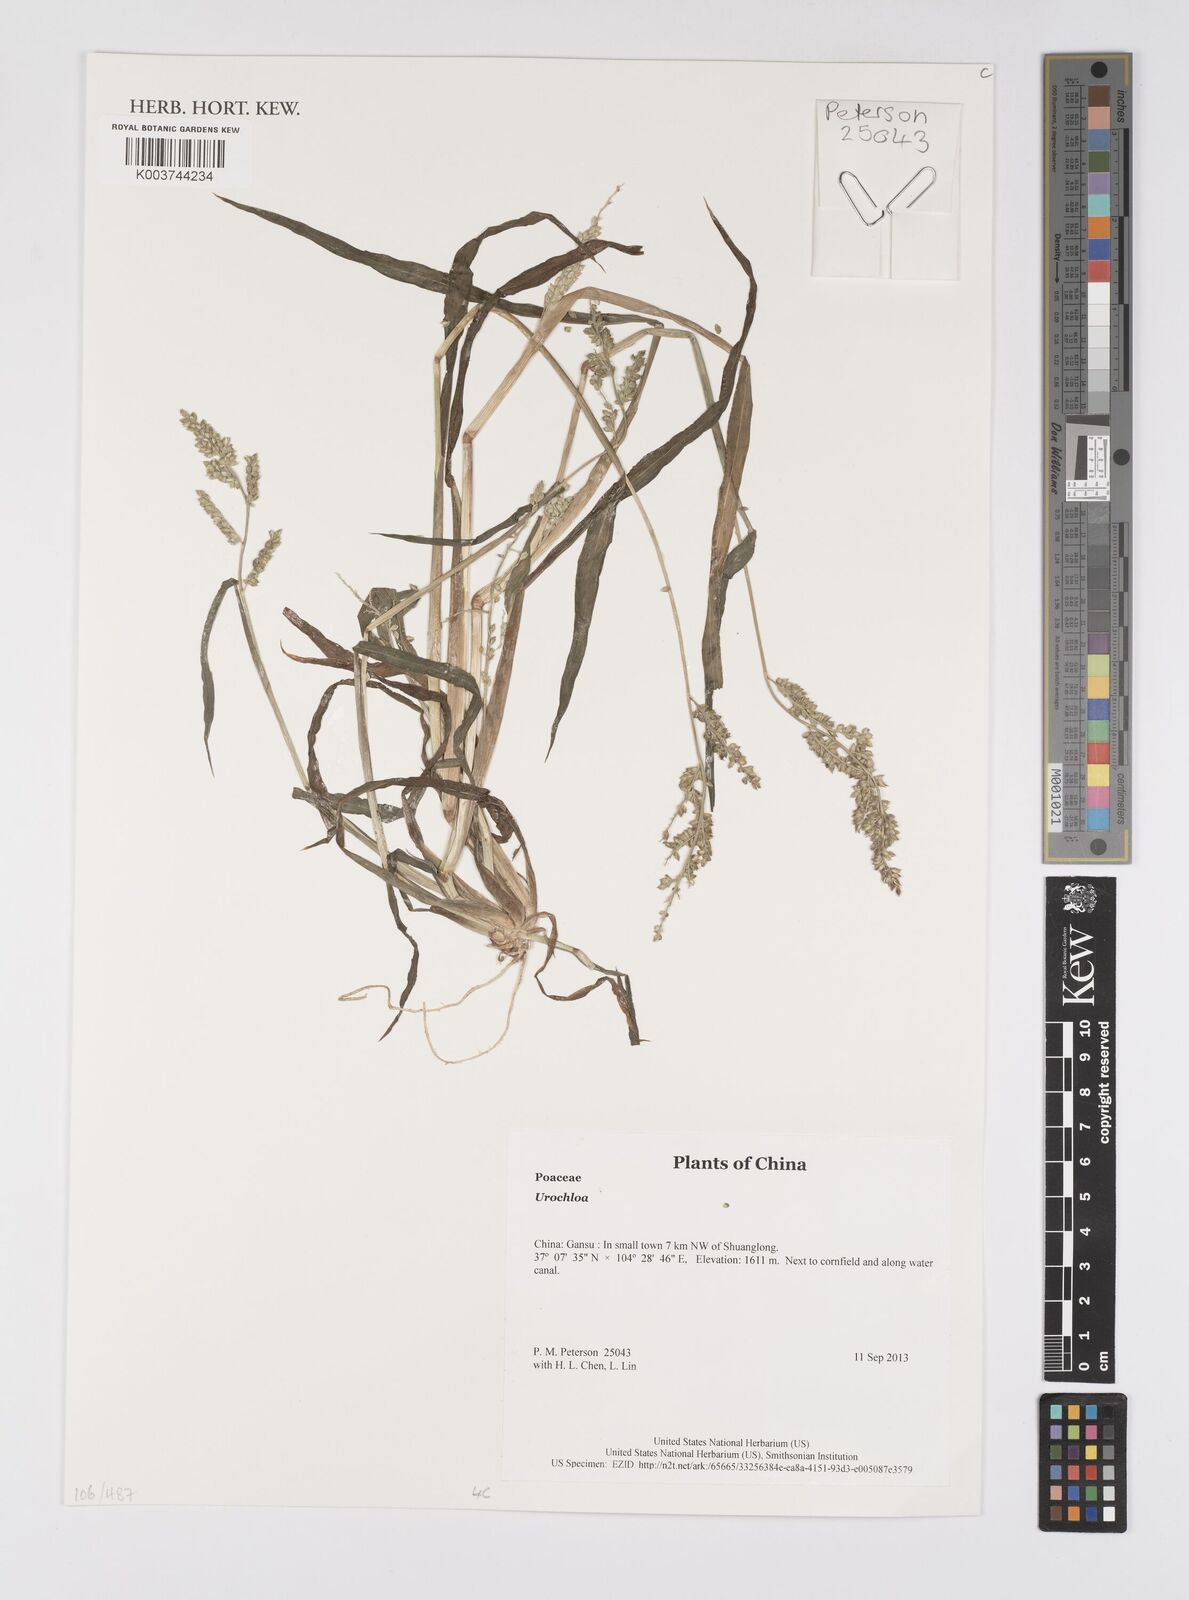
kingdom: Plantae
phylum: Tracheophyta
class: Liliopsida
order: Poales
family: Poaceae
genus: Urochloa
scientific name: Urochloa
